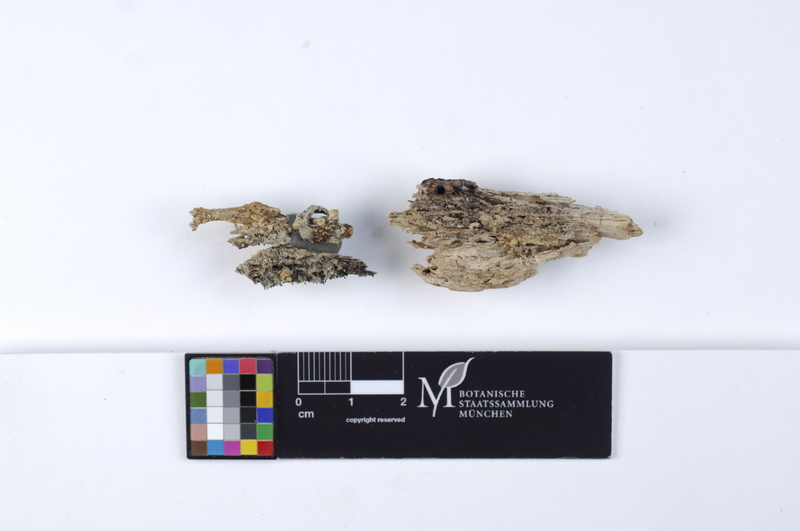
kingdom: Fungi
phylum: Basidiomycota
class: Agaricomycetes
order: Cantharellales
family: Botryobasidiaceae
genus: Botryobasidium
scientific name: Botryobasidium aureum
